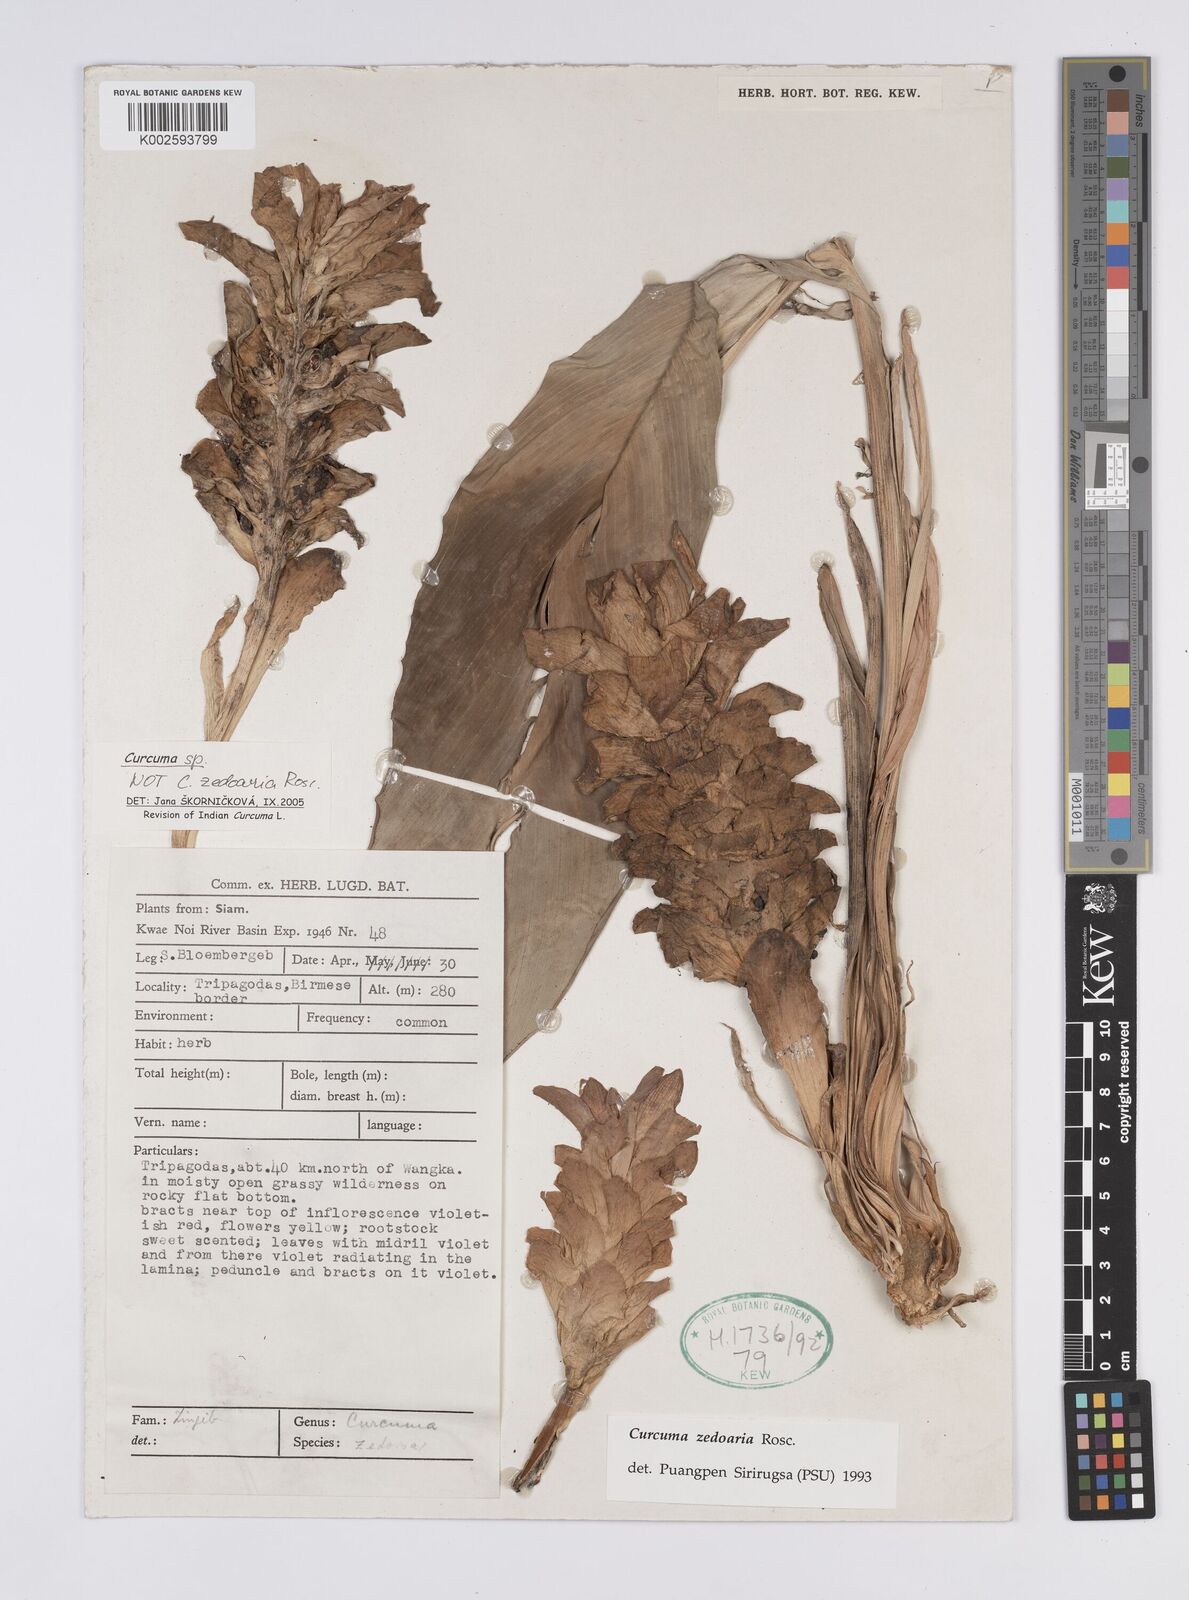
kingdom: Plantae
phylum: Tracheophyta
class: Liliopsida
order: Zingiberales
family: Zingiberaceae
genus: Curcuma
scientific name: Curcuma
